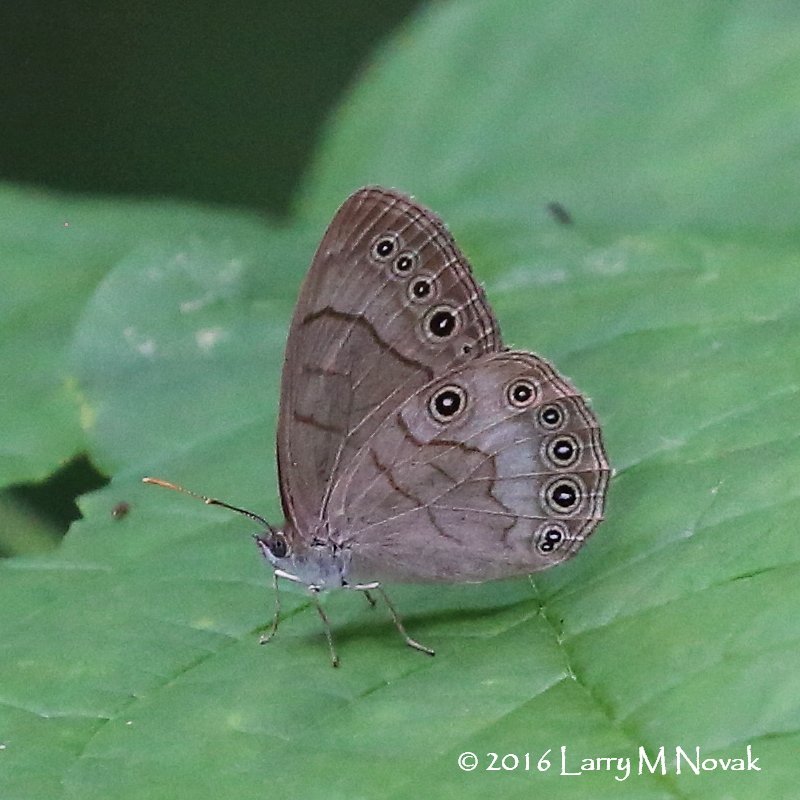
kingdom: Animalia
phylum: Arthropoda
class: Insecta
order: Lepidoptera
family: Nymphalidae
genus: Lethe
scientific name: Lethe eurydice
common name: Appalachian Eyed Brown
